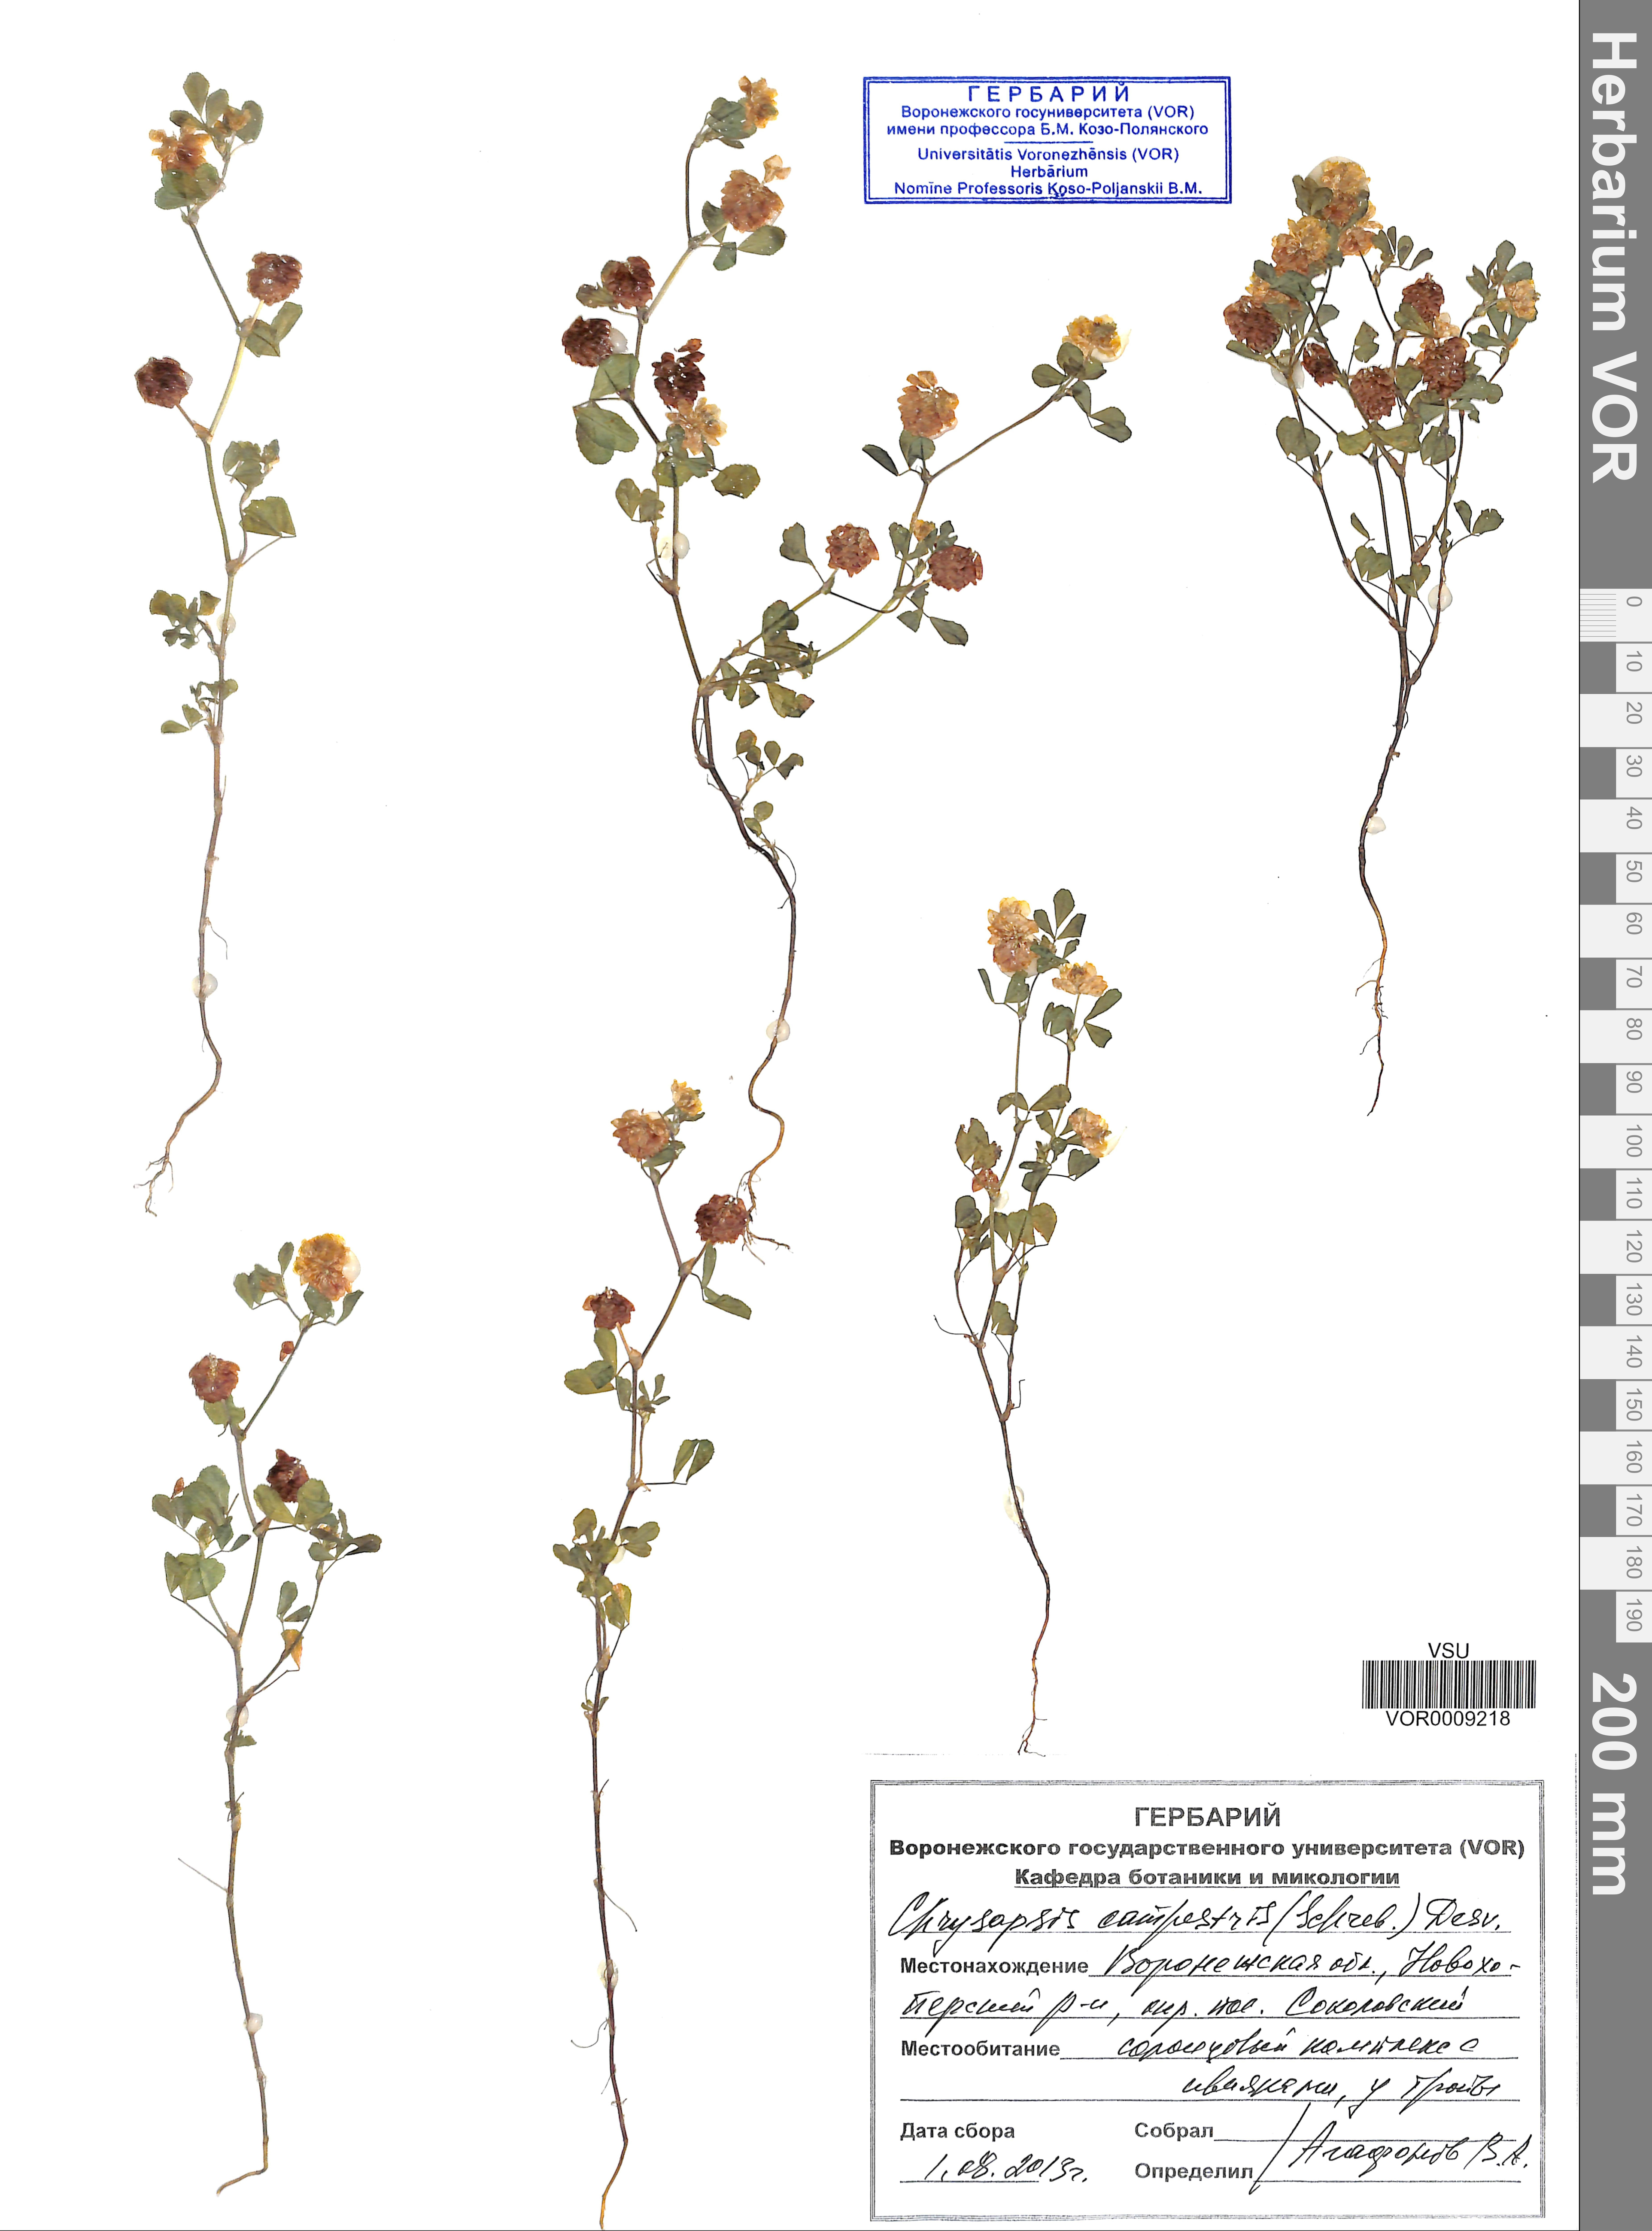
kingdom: Plantae
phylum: Tracheophyta
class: Magnoliopsida
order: Fabales
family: Fabaceae
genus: Trifolium
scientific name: Trifolium campestre
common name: Field clover
